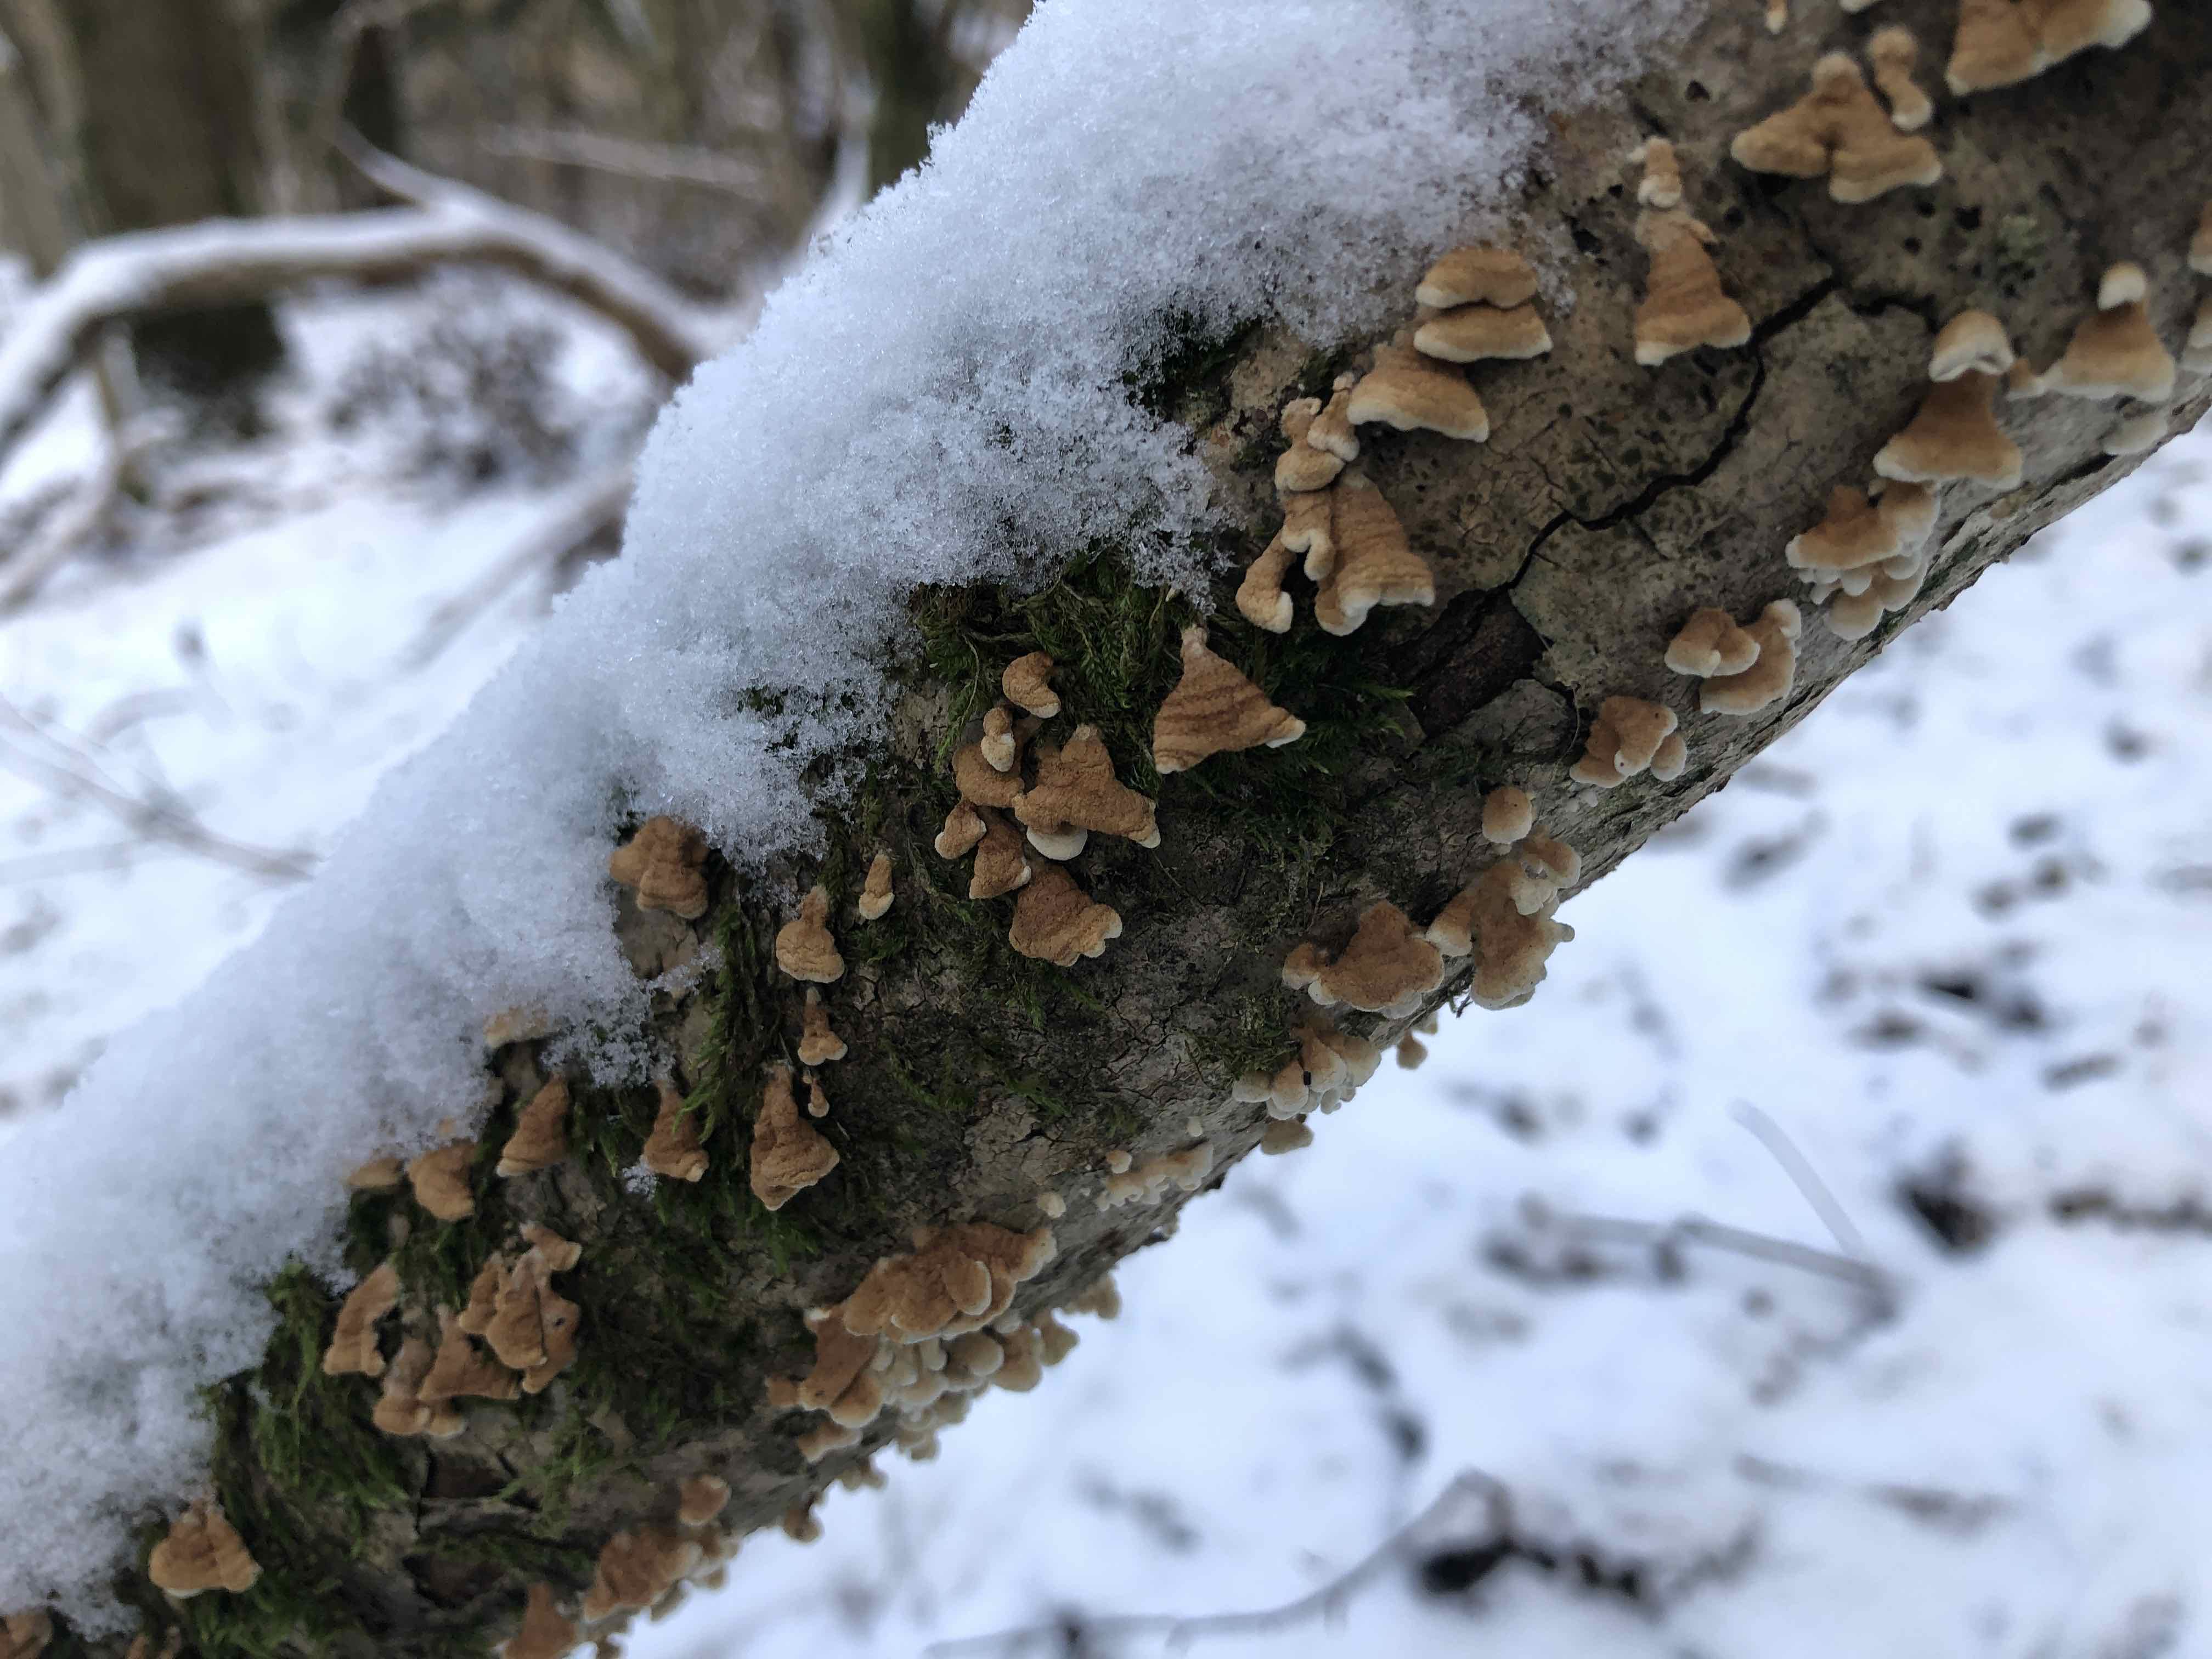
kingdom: Fungi
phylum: Basidiomycota
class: Agaricomycetes
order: Amylocorticiales
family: Amylocorticiaceae
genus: Plicaturopsis
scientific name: Plicaturopsis crispa
